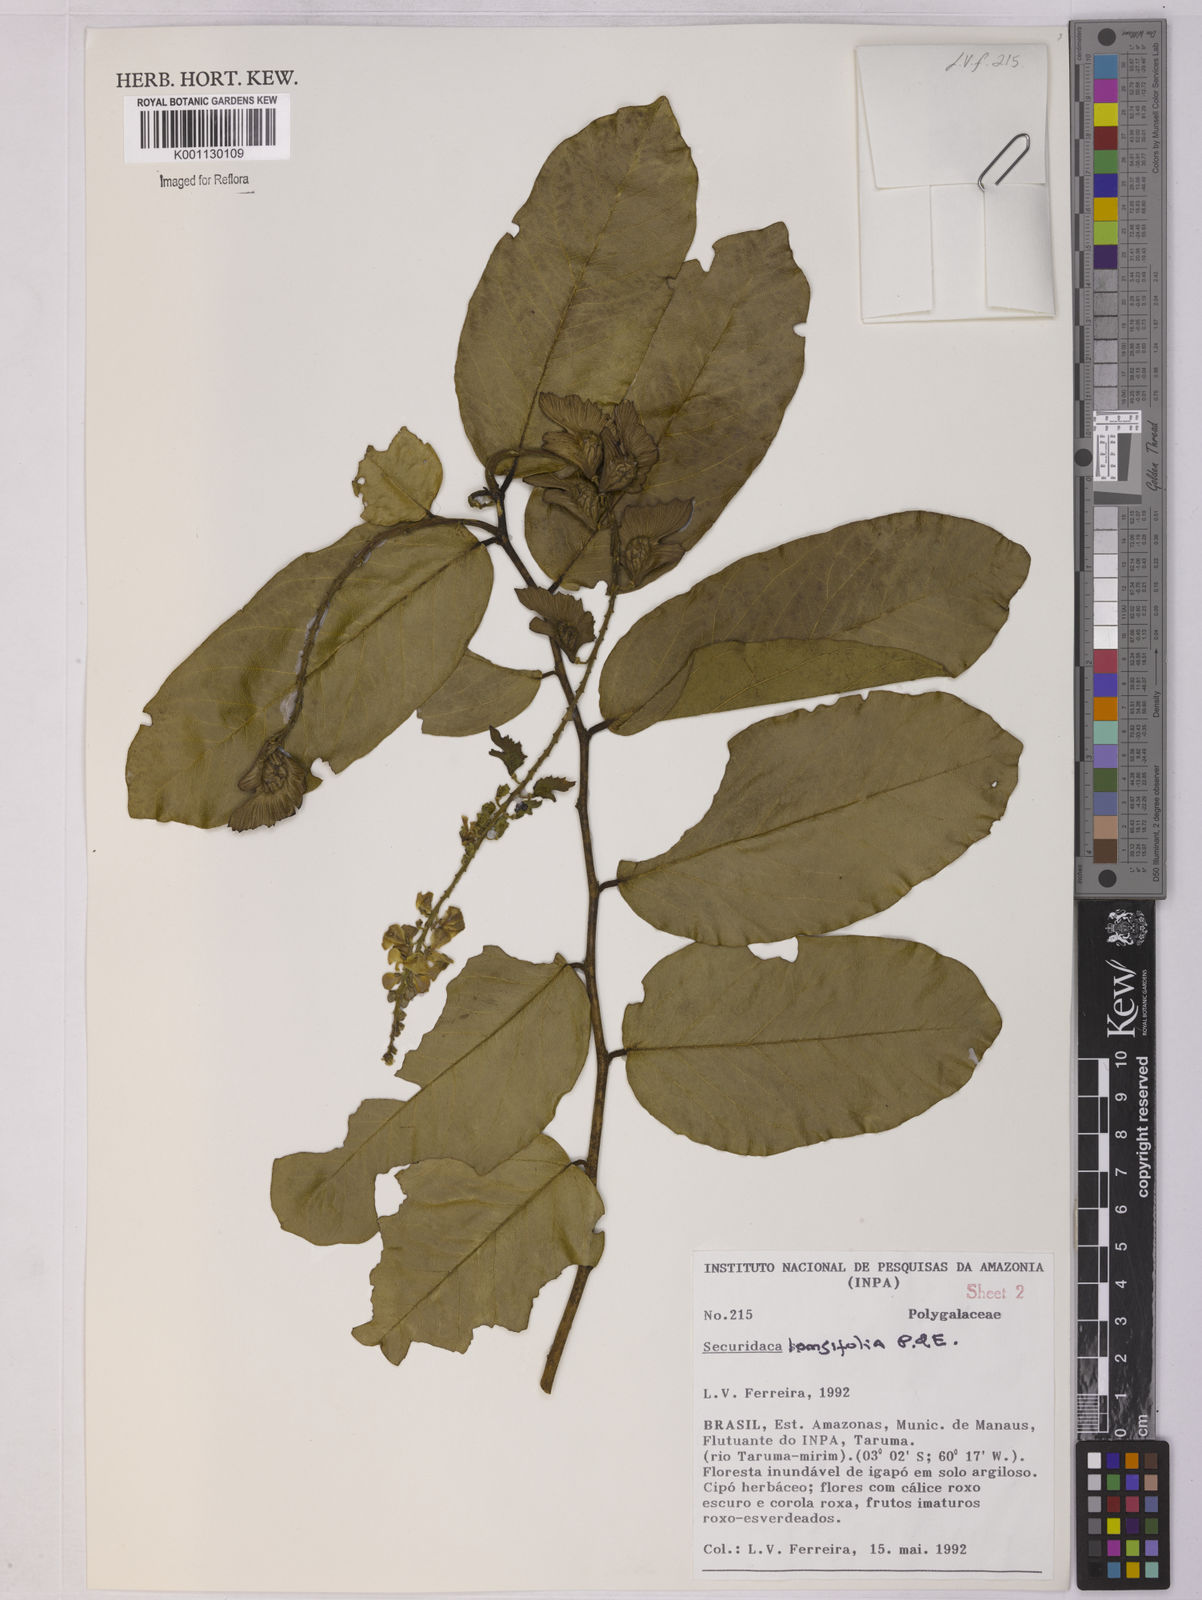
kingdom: Plantae
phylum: Tracheophyta
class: Magnoliopsida
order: Fabales
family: Polygalaceae
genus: Securidaca
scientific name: Securidaca longifolia
